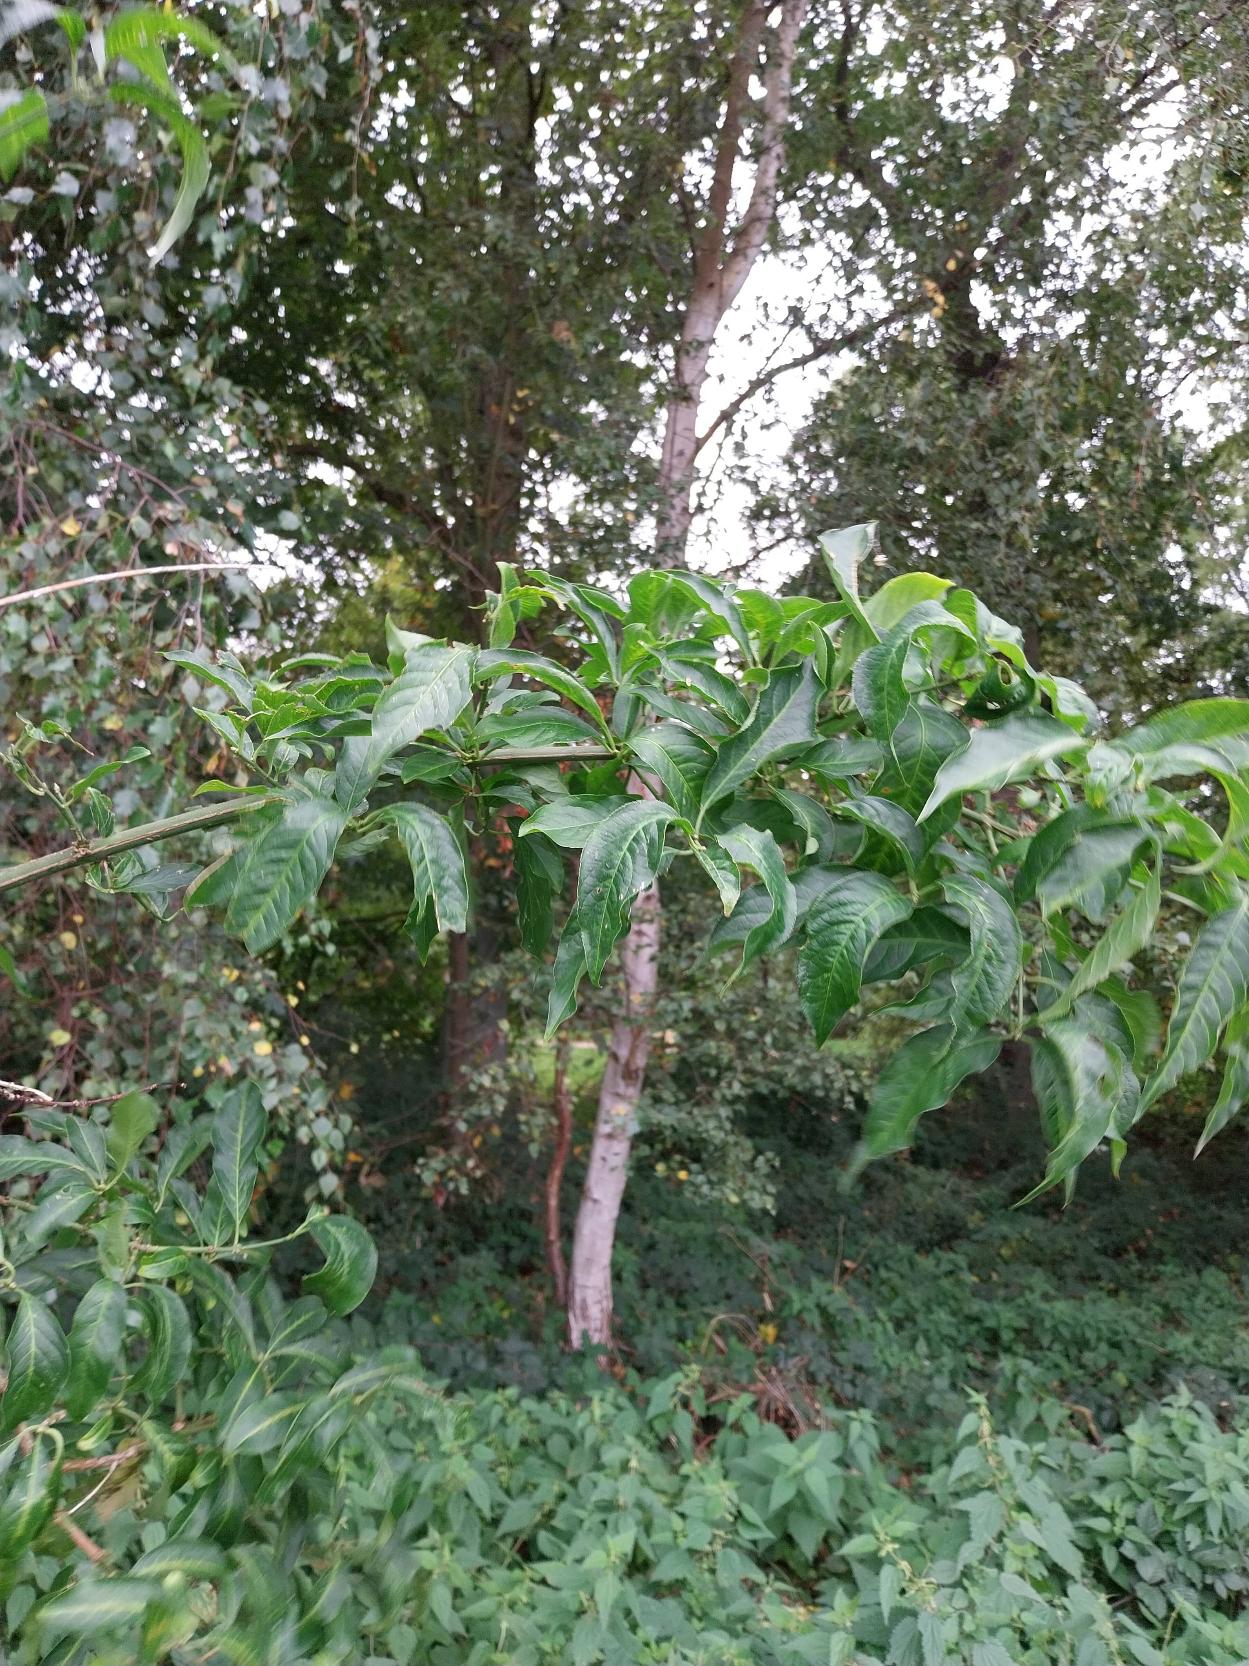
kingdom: Plantae
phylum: Tracheophyta
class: Magnoliopsida
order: Celastrales
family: Celastraceae
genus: Euonymus
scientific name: Euonymus europaeus
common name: Benved
